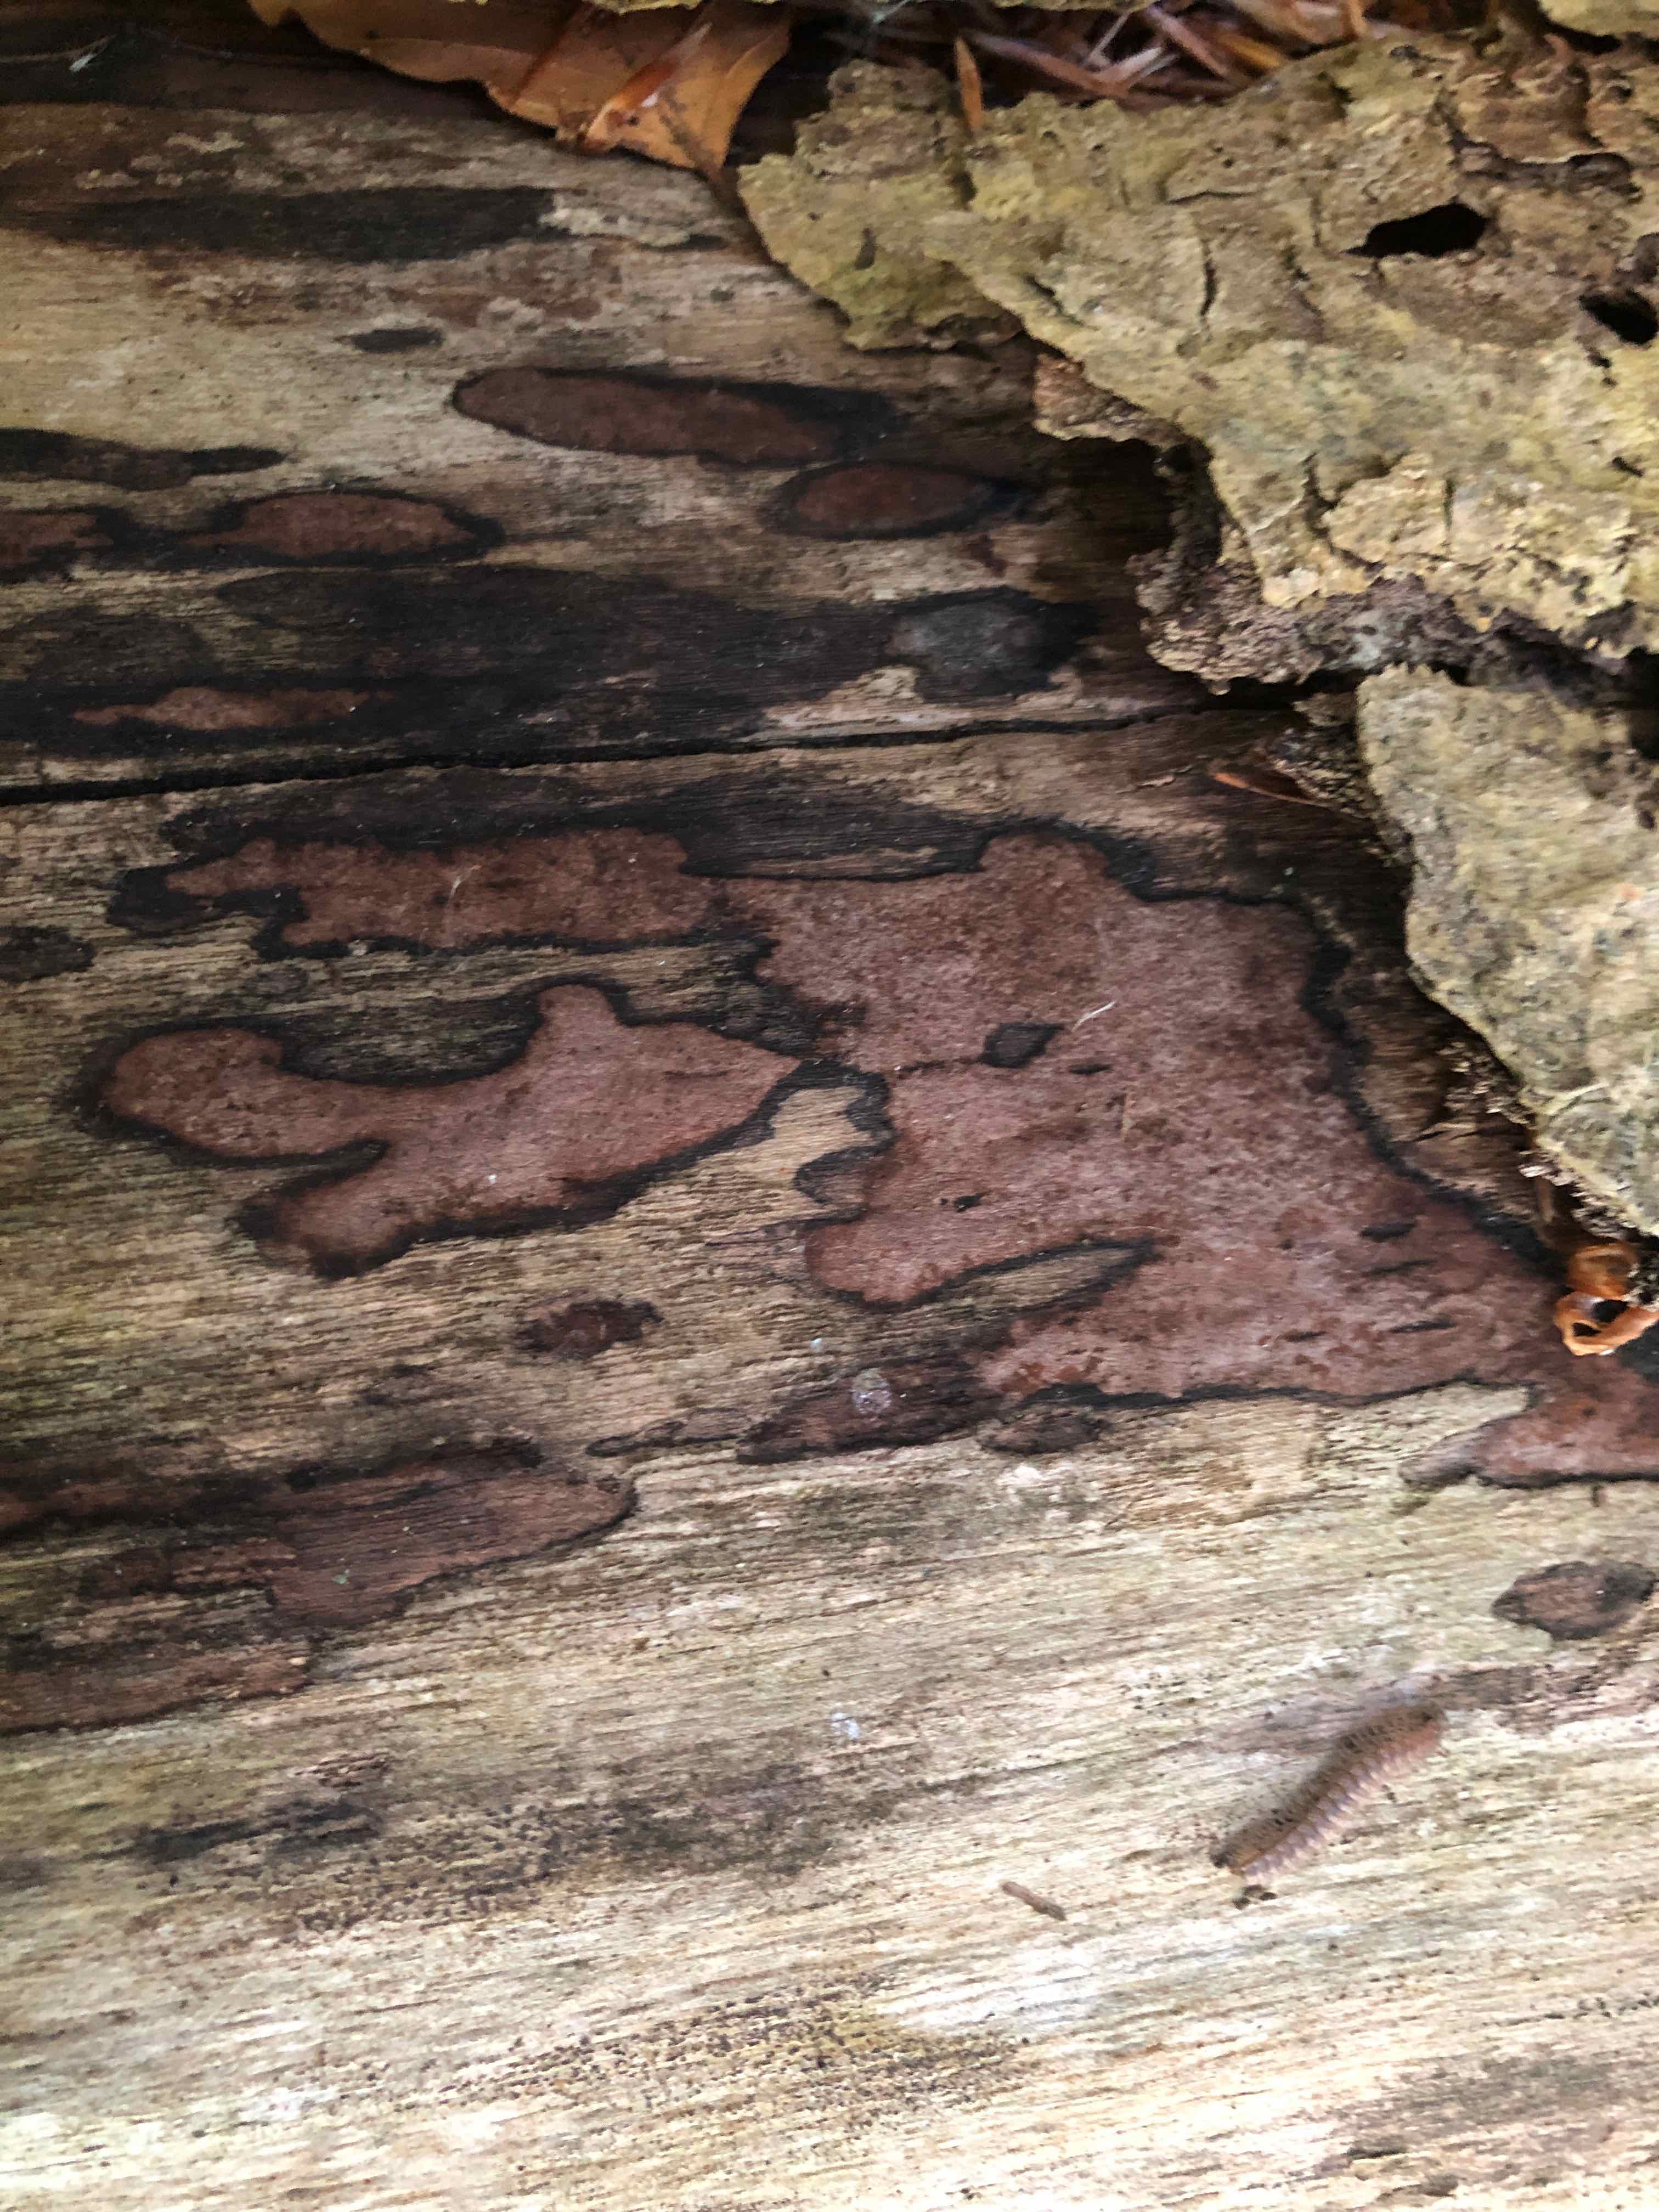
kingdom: Fungi
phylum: Ascomycota
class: Sordariomycetes
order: Xylariales
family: Hypoxylaceae
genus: Hypoxylon
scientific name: Hypoxylon petriniae
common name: nedsænket kulbær
